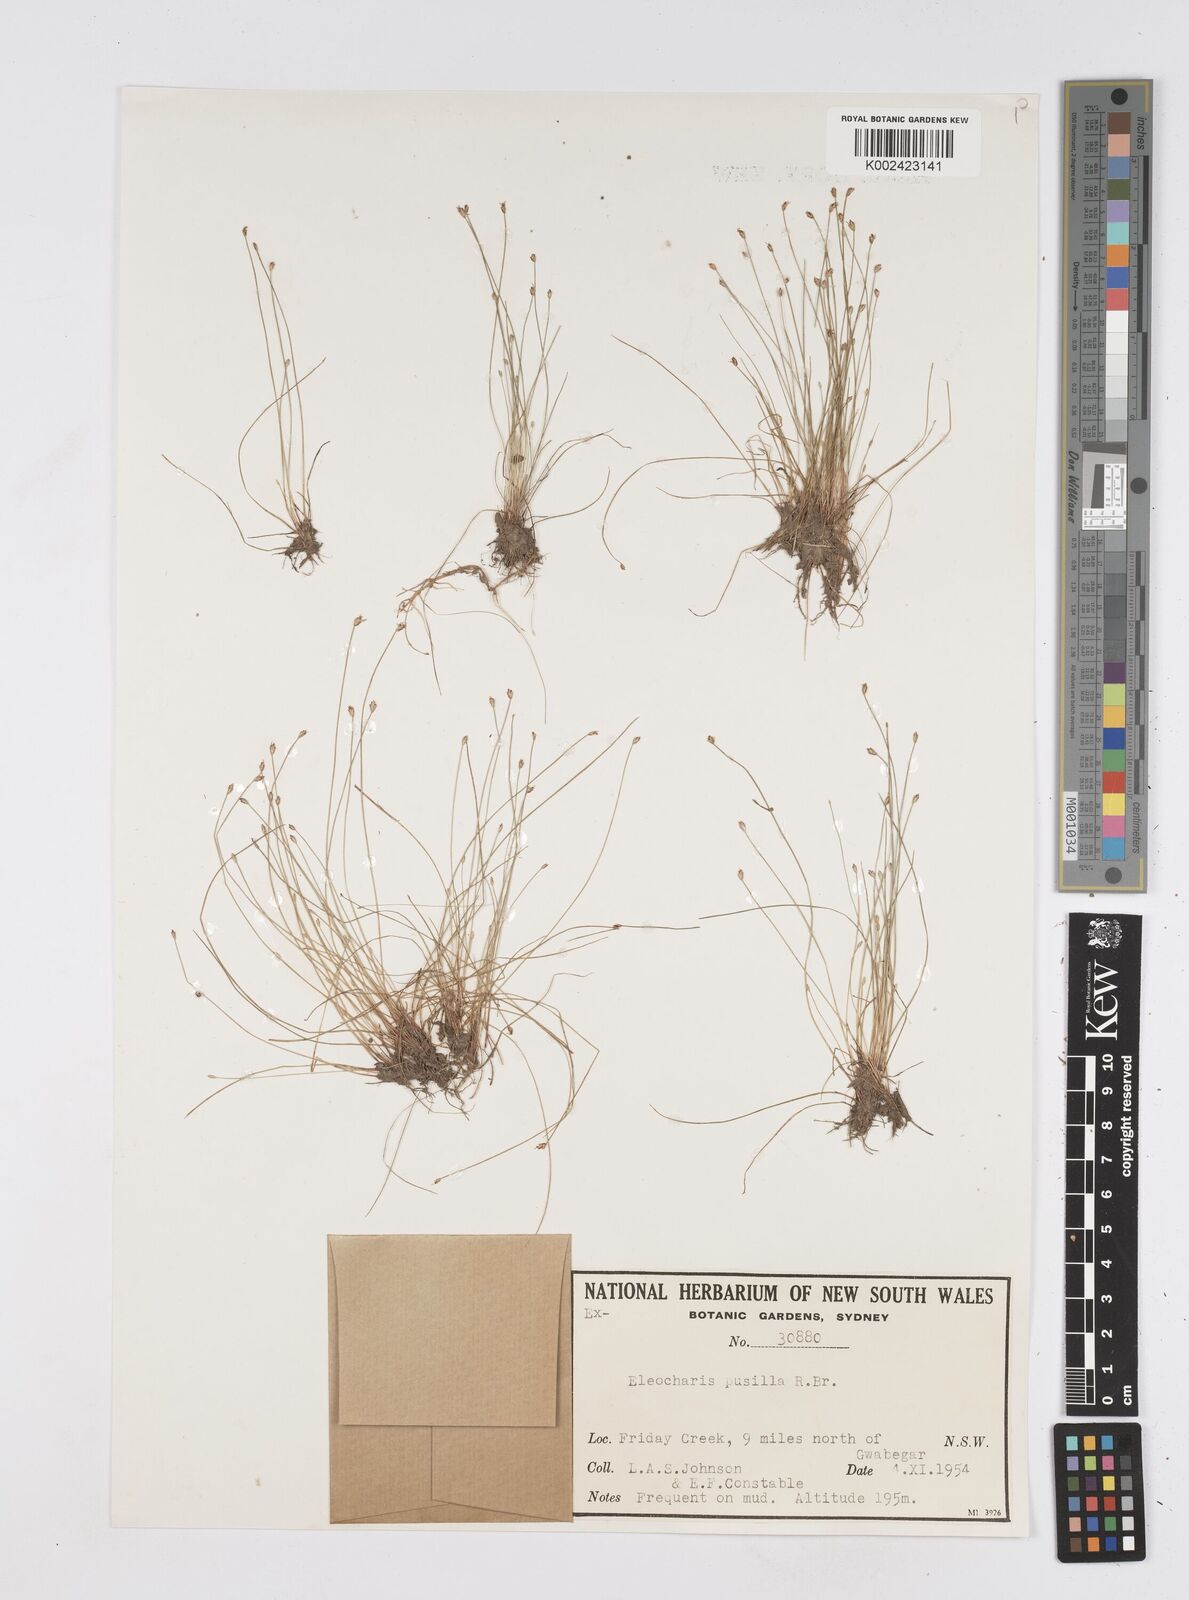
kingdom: Plantae
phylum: Tracheophyta
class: Liliopsida
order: Poales
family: Cyperaceae
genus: Eleocharis
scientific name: Eleocharis pusilla
